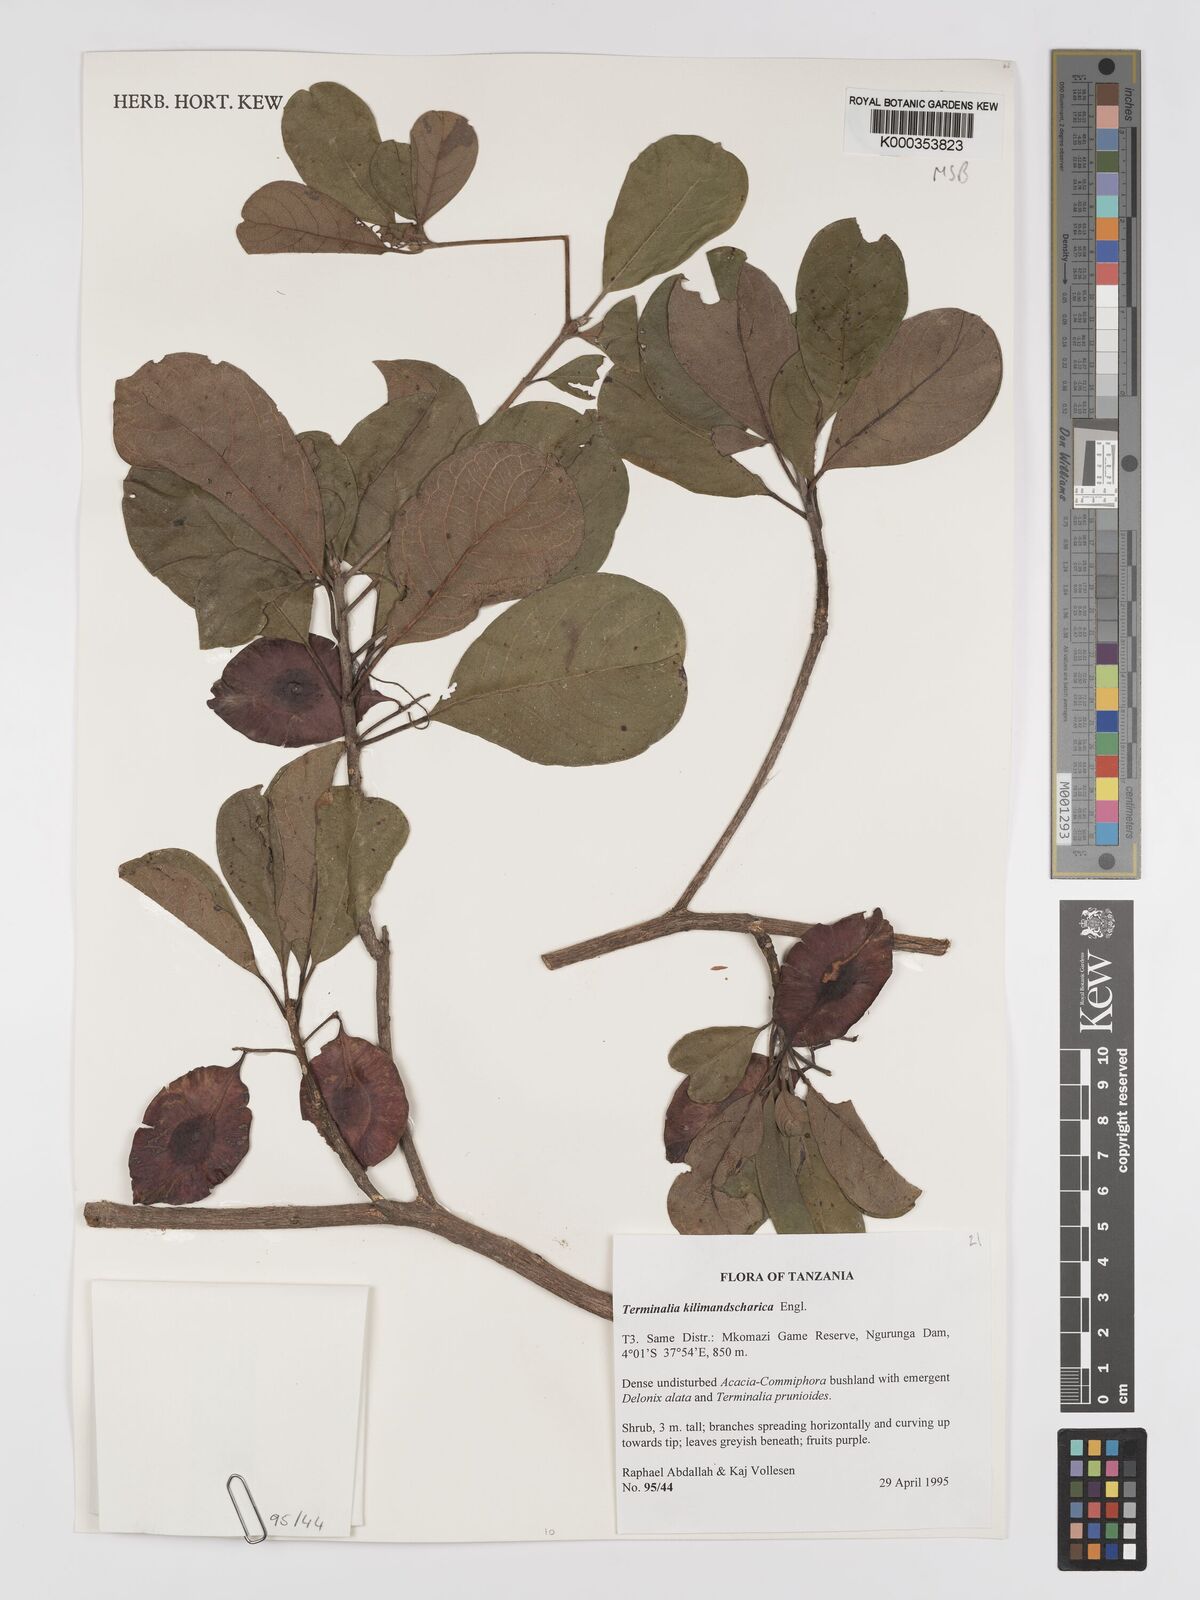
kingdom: Plantae
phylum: Tracheophyta
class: Magnoliopsida
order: Myrtales
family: Combretaceae
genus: Terminalia
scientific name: Terminalia kilimandscharica
